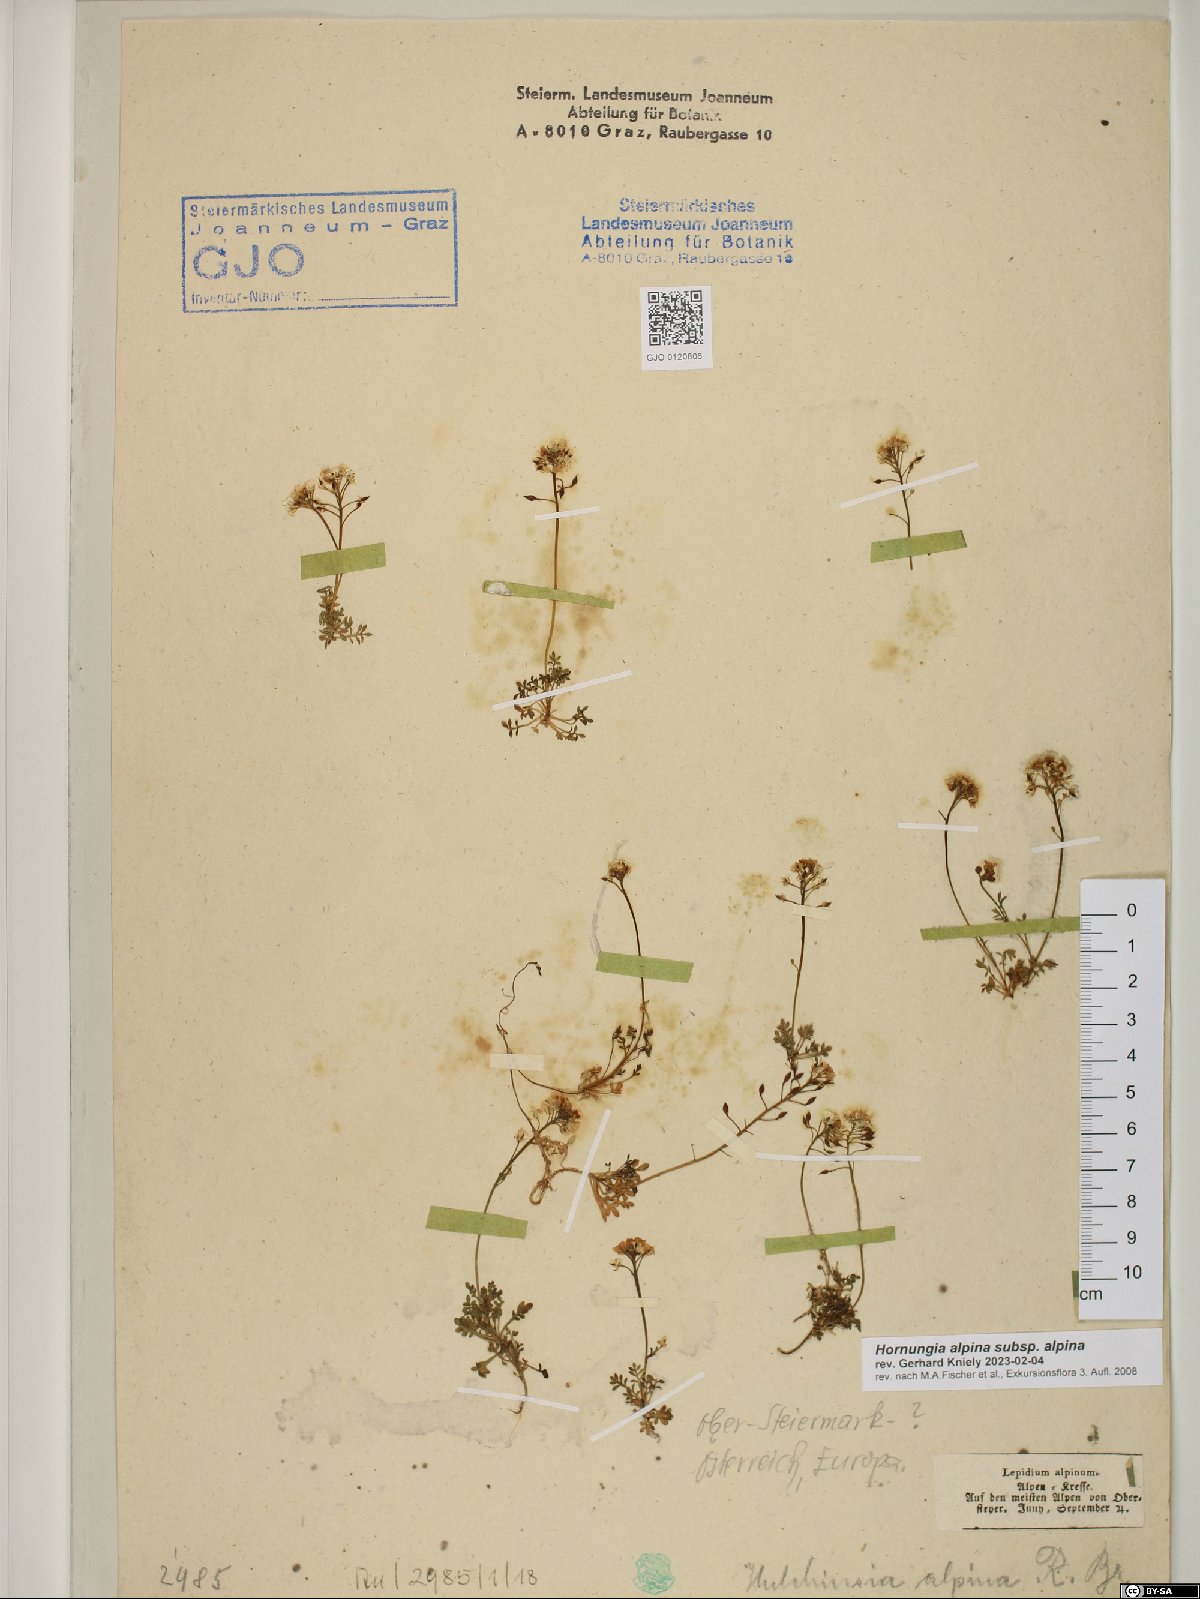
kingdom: Plantae
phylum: Tracheophyta
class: Magnoliopsida
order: Brassicales
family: Brassicaceae
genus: Hornungia
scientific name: Hornungia alpina
